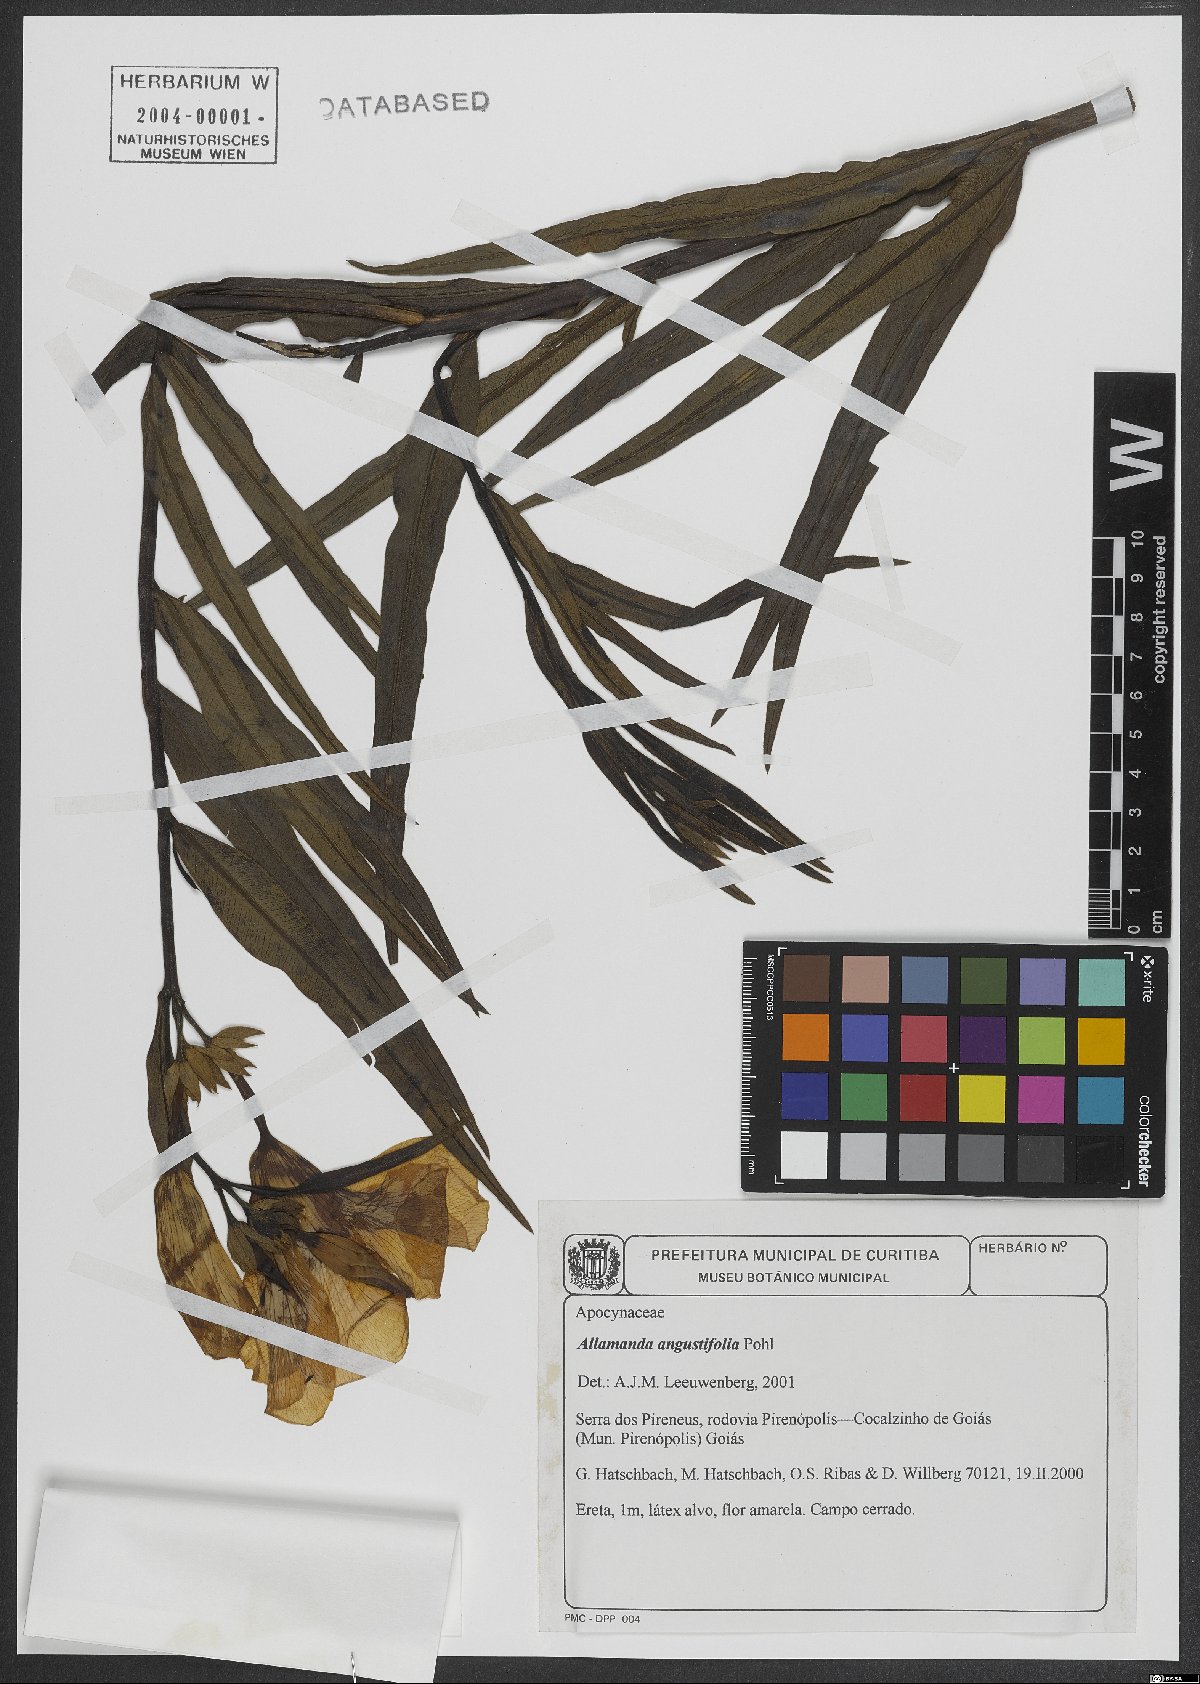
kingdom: Plantae
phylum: Tracheophyta
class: Magnoliopsida
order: Gentianales
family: Apocynaceae
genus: Allamanda
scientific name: Allamanda angustifolia
